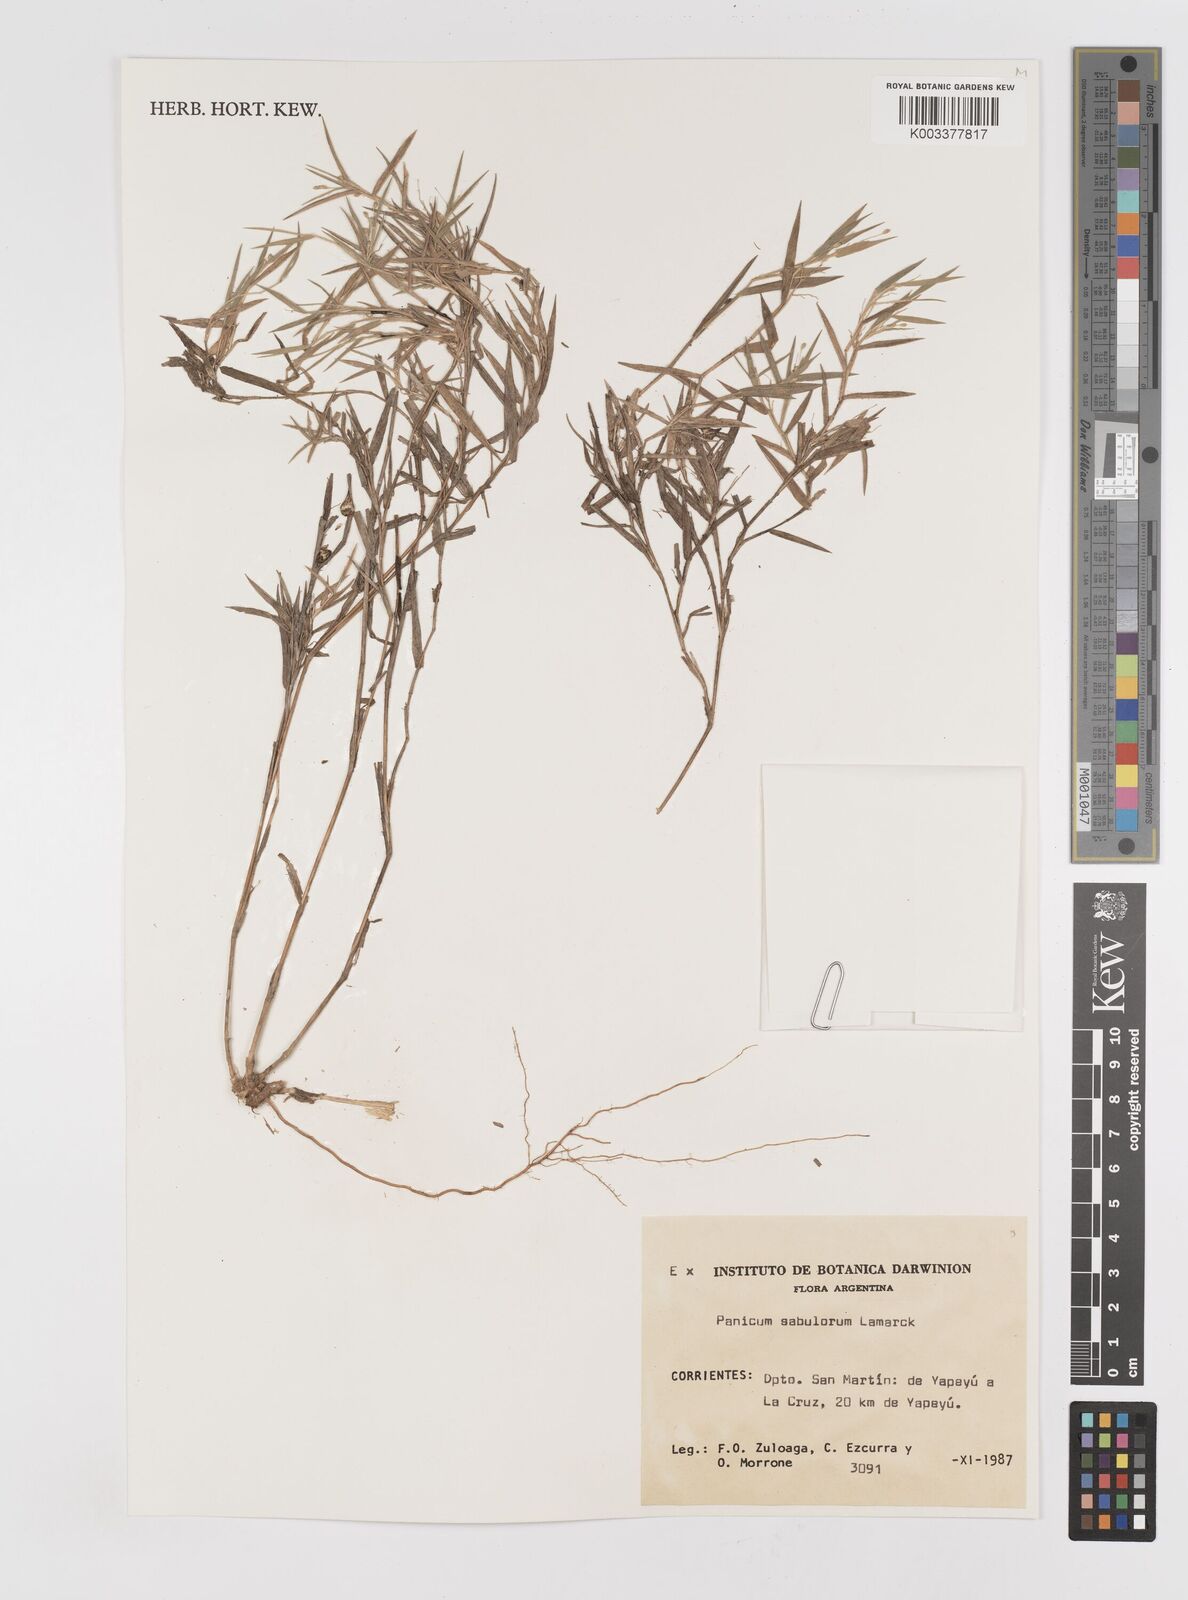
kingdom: Plantae
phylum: Tracheophyta
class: Liliopsida
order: Poales
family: Poaceae
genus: Dichanthelium
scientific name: Dichanthelium sabulorum
